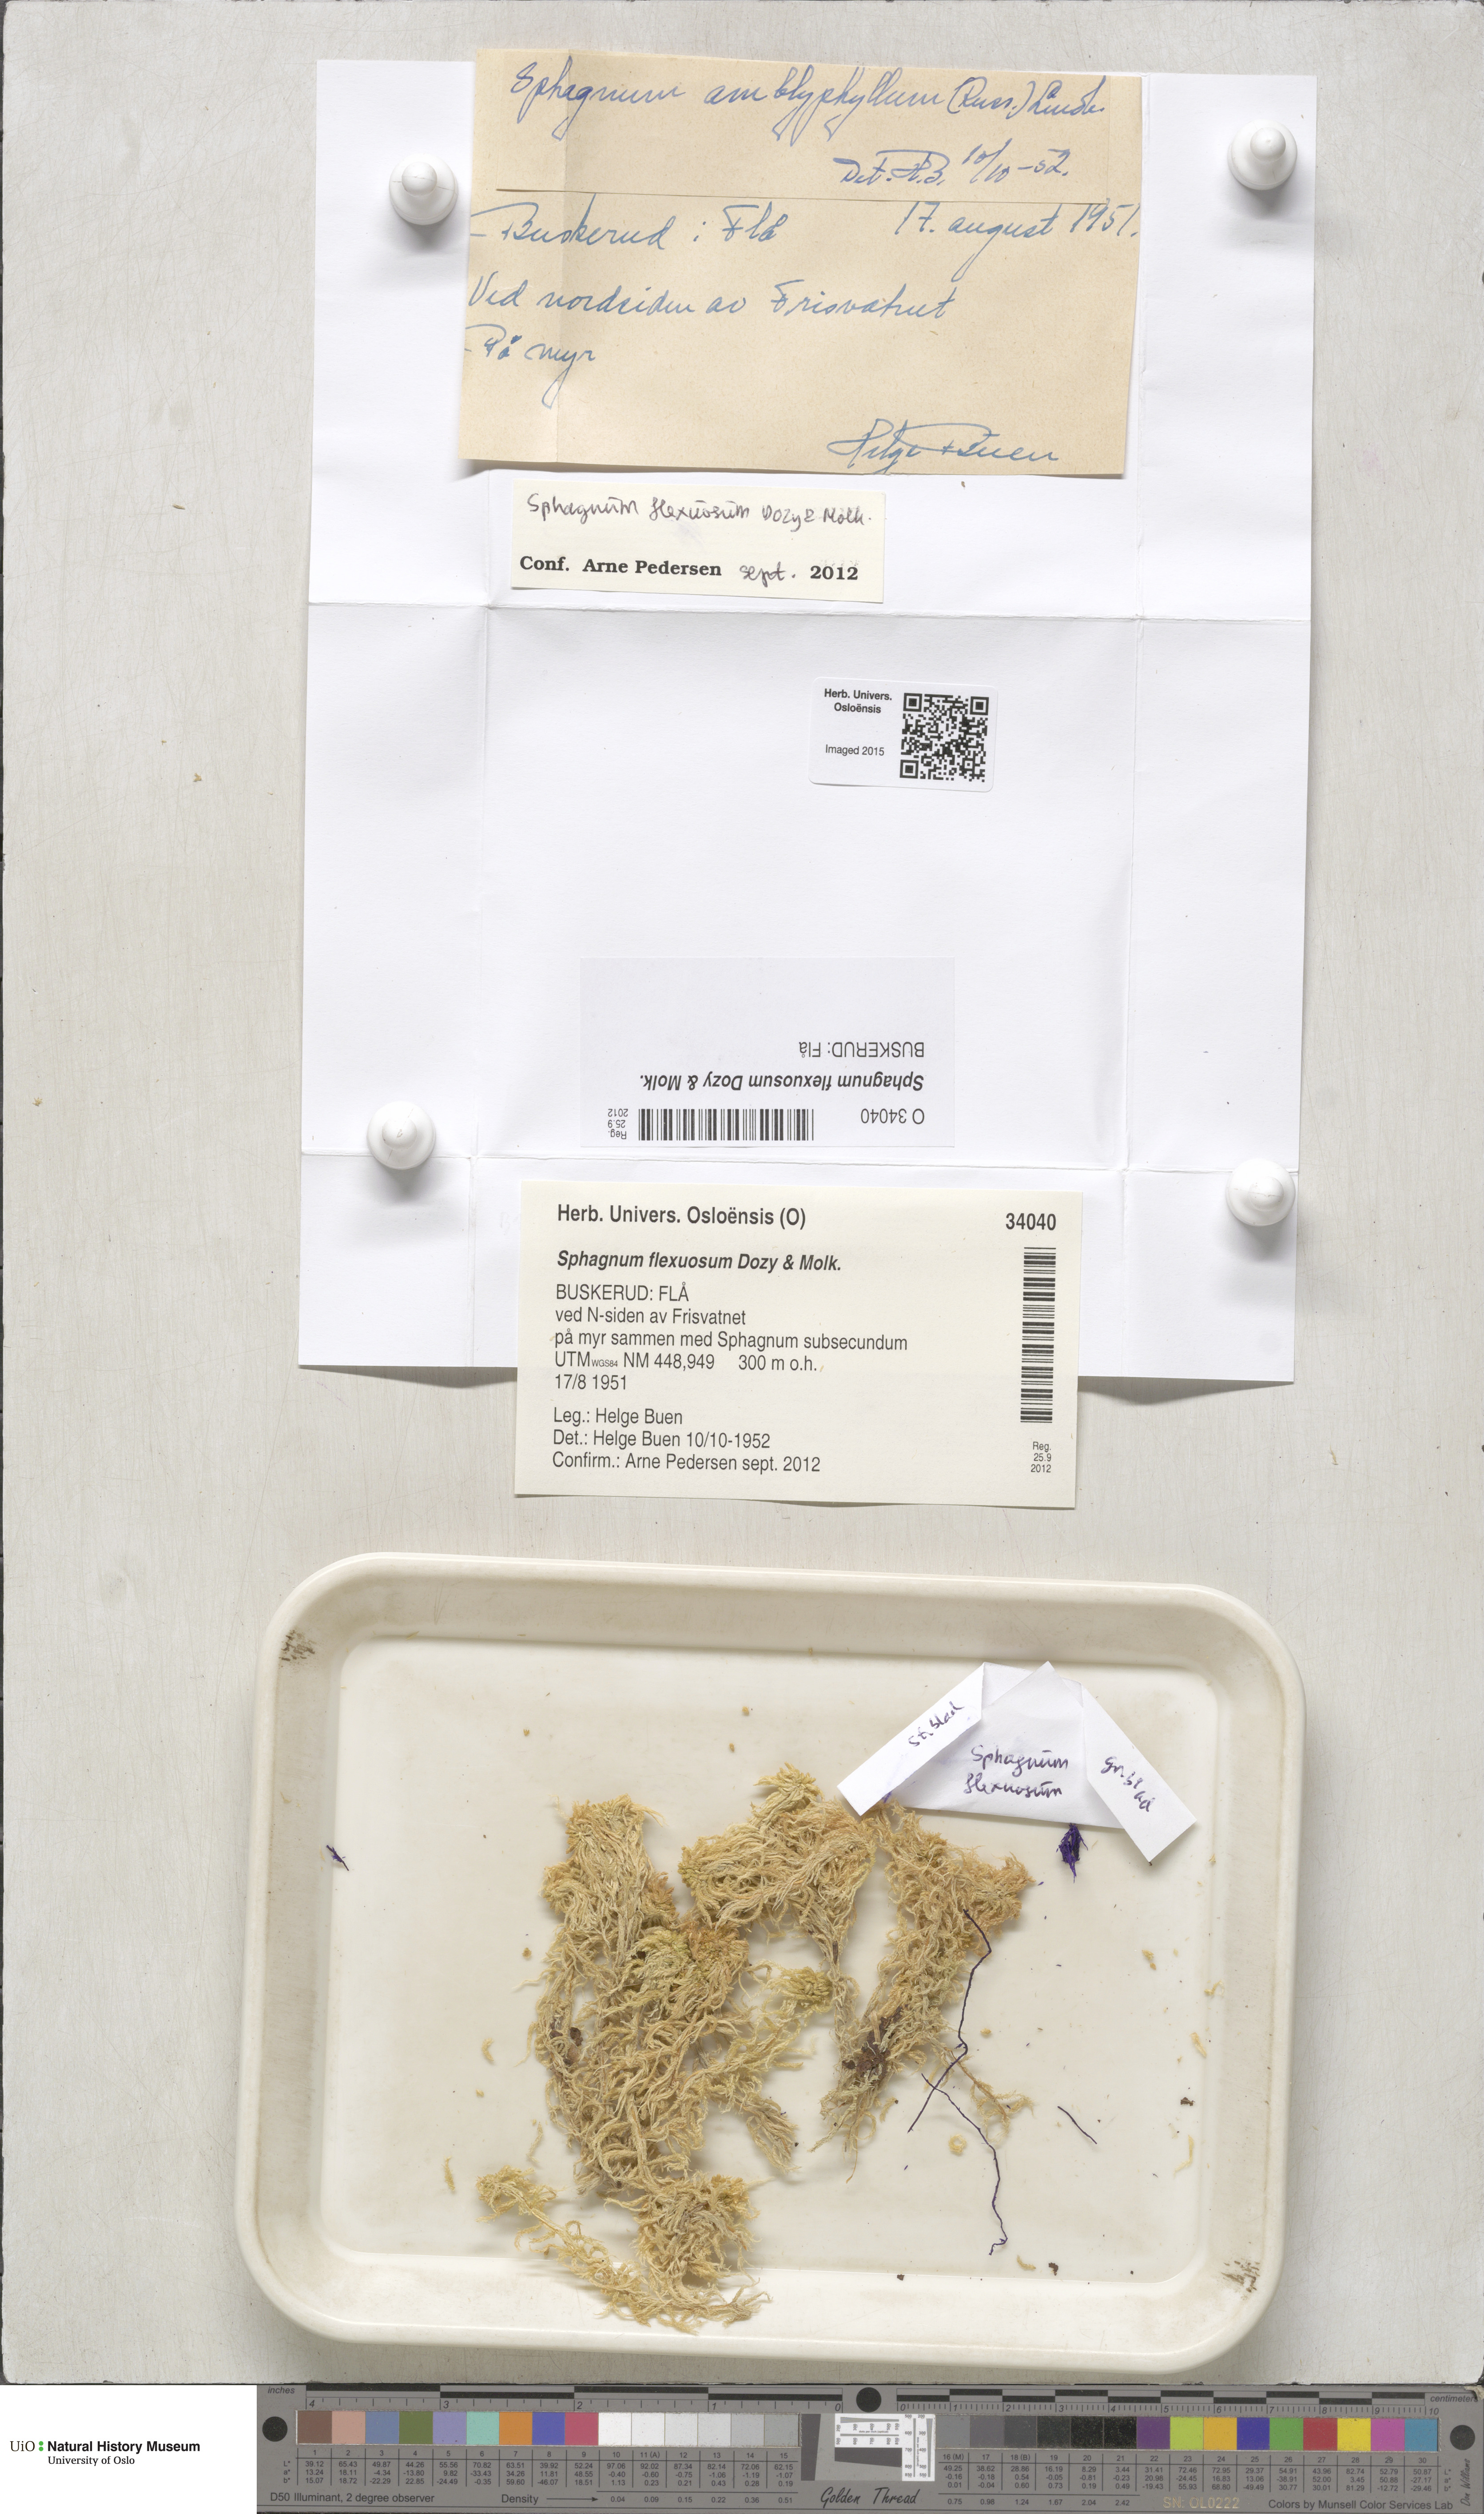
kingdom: Plantae
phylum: Bryophyta
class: Sphagnopsida
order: Sphagnales
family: Sphagnaceae
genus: Sphagnum
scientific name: Sphagnum flexuosum
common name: Flexible peat moss
